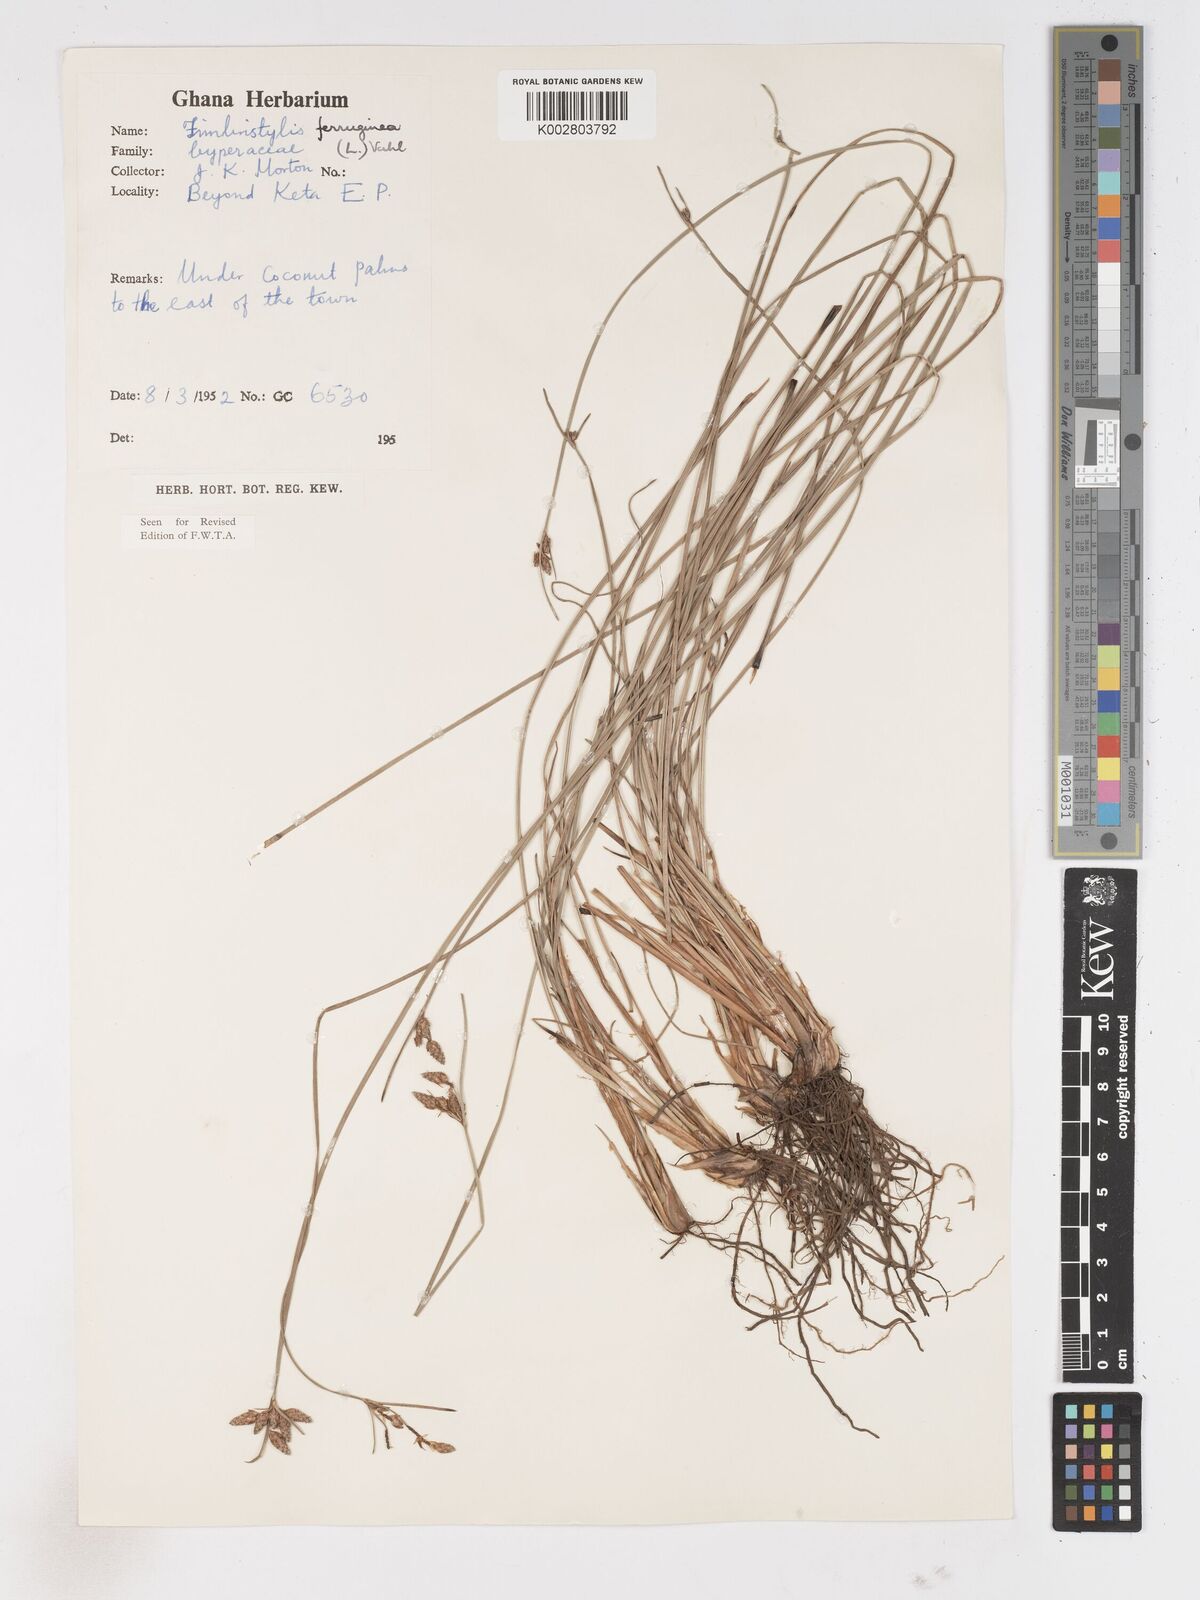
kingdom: Plantae
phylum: Tracheophyta
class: Liliopsida
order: Poales
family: Cyperaceae
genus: Fimbristylis
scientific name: Fimbristylis ferruginea
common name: West indian fimbry
